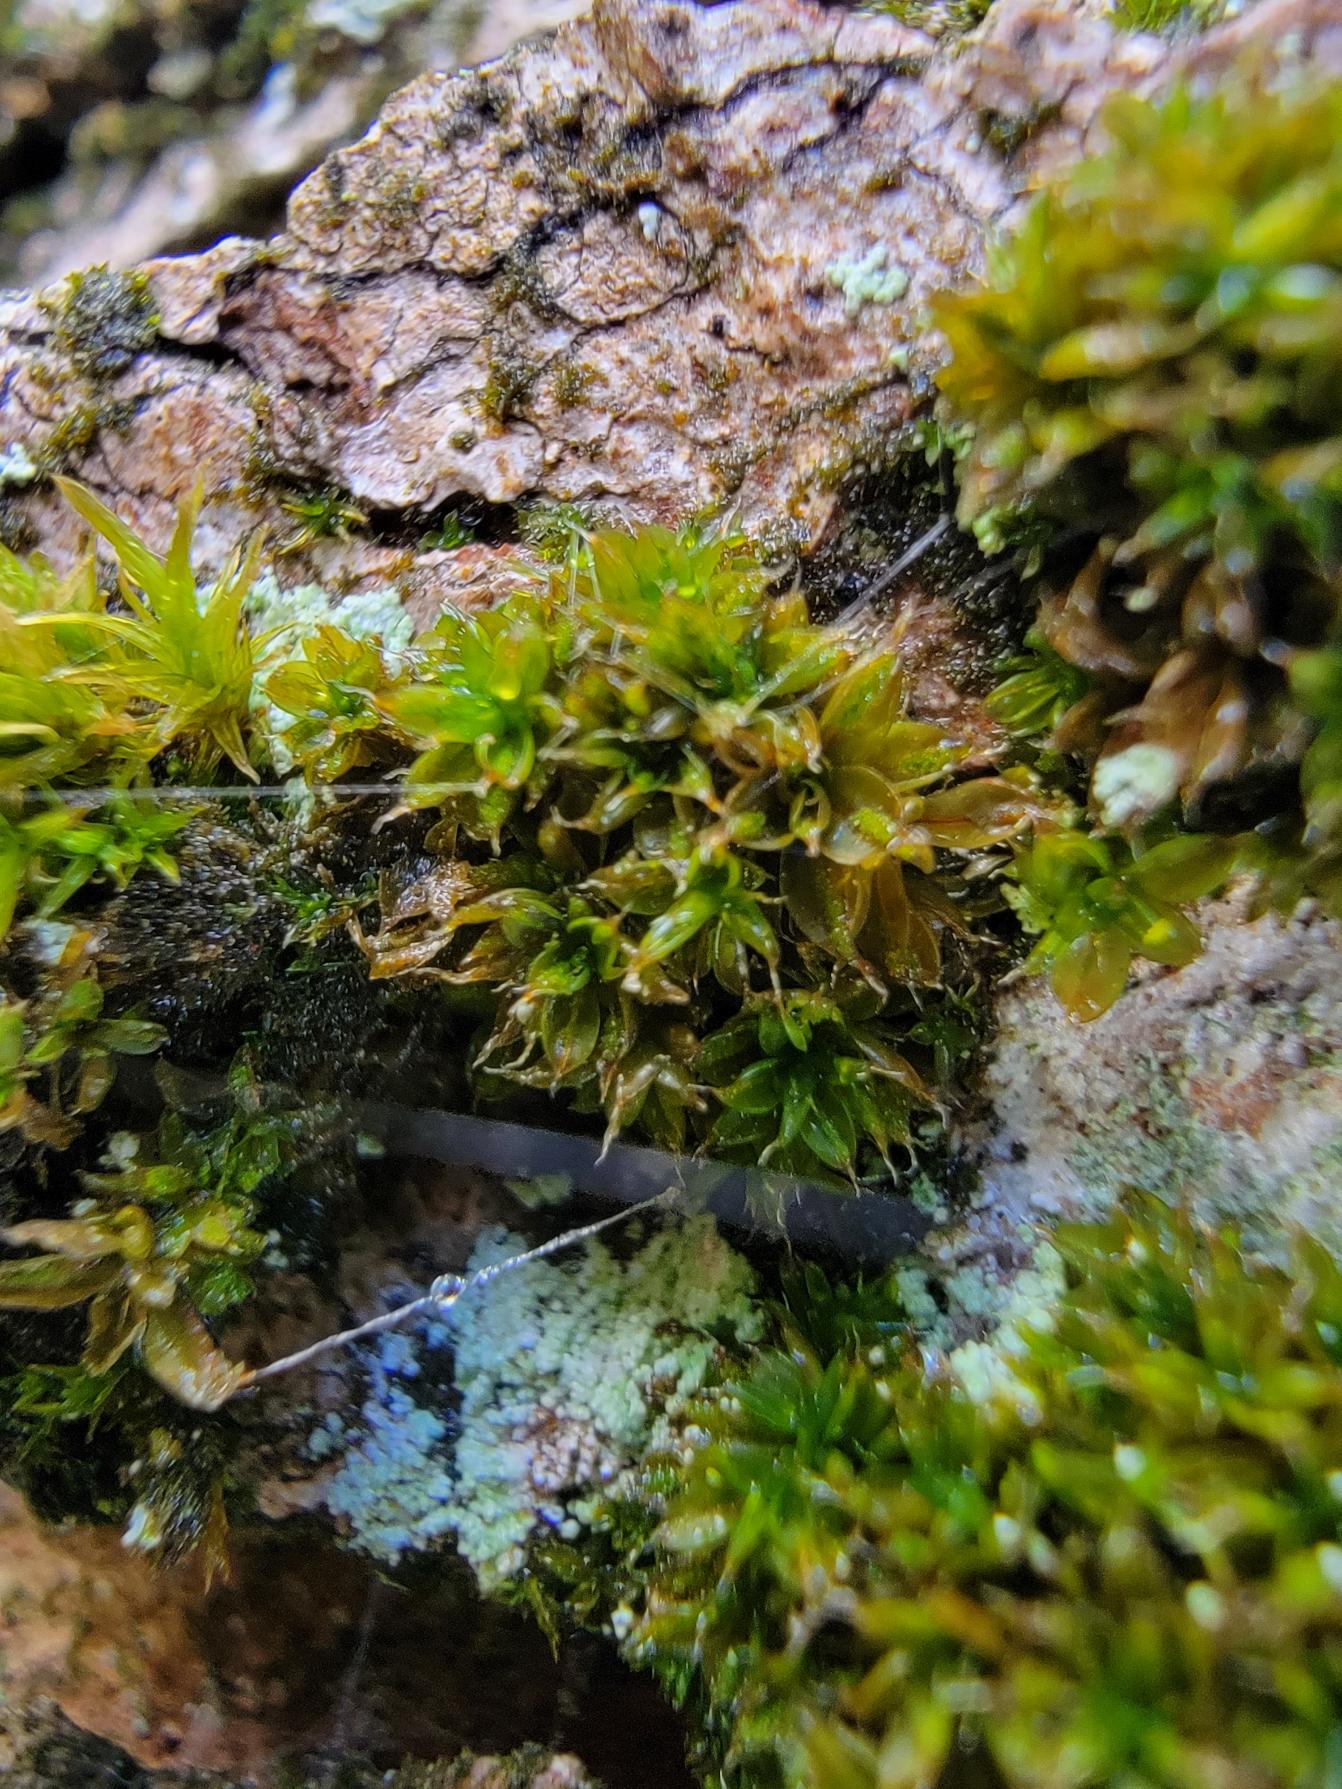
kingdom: Plantae
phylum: Bryophyta
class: Bryopsida
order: Pottiales
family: Pottiaceae
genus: Syntrichia
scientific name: Syntrichia papillosa
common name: Bark-hårstjerne
